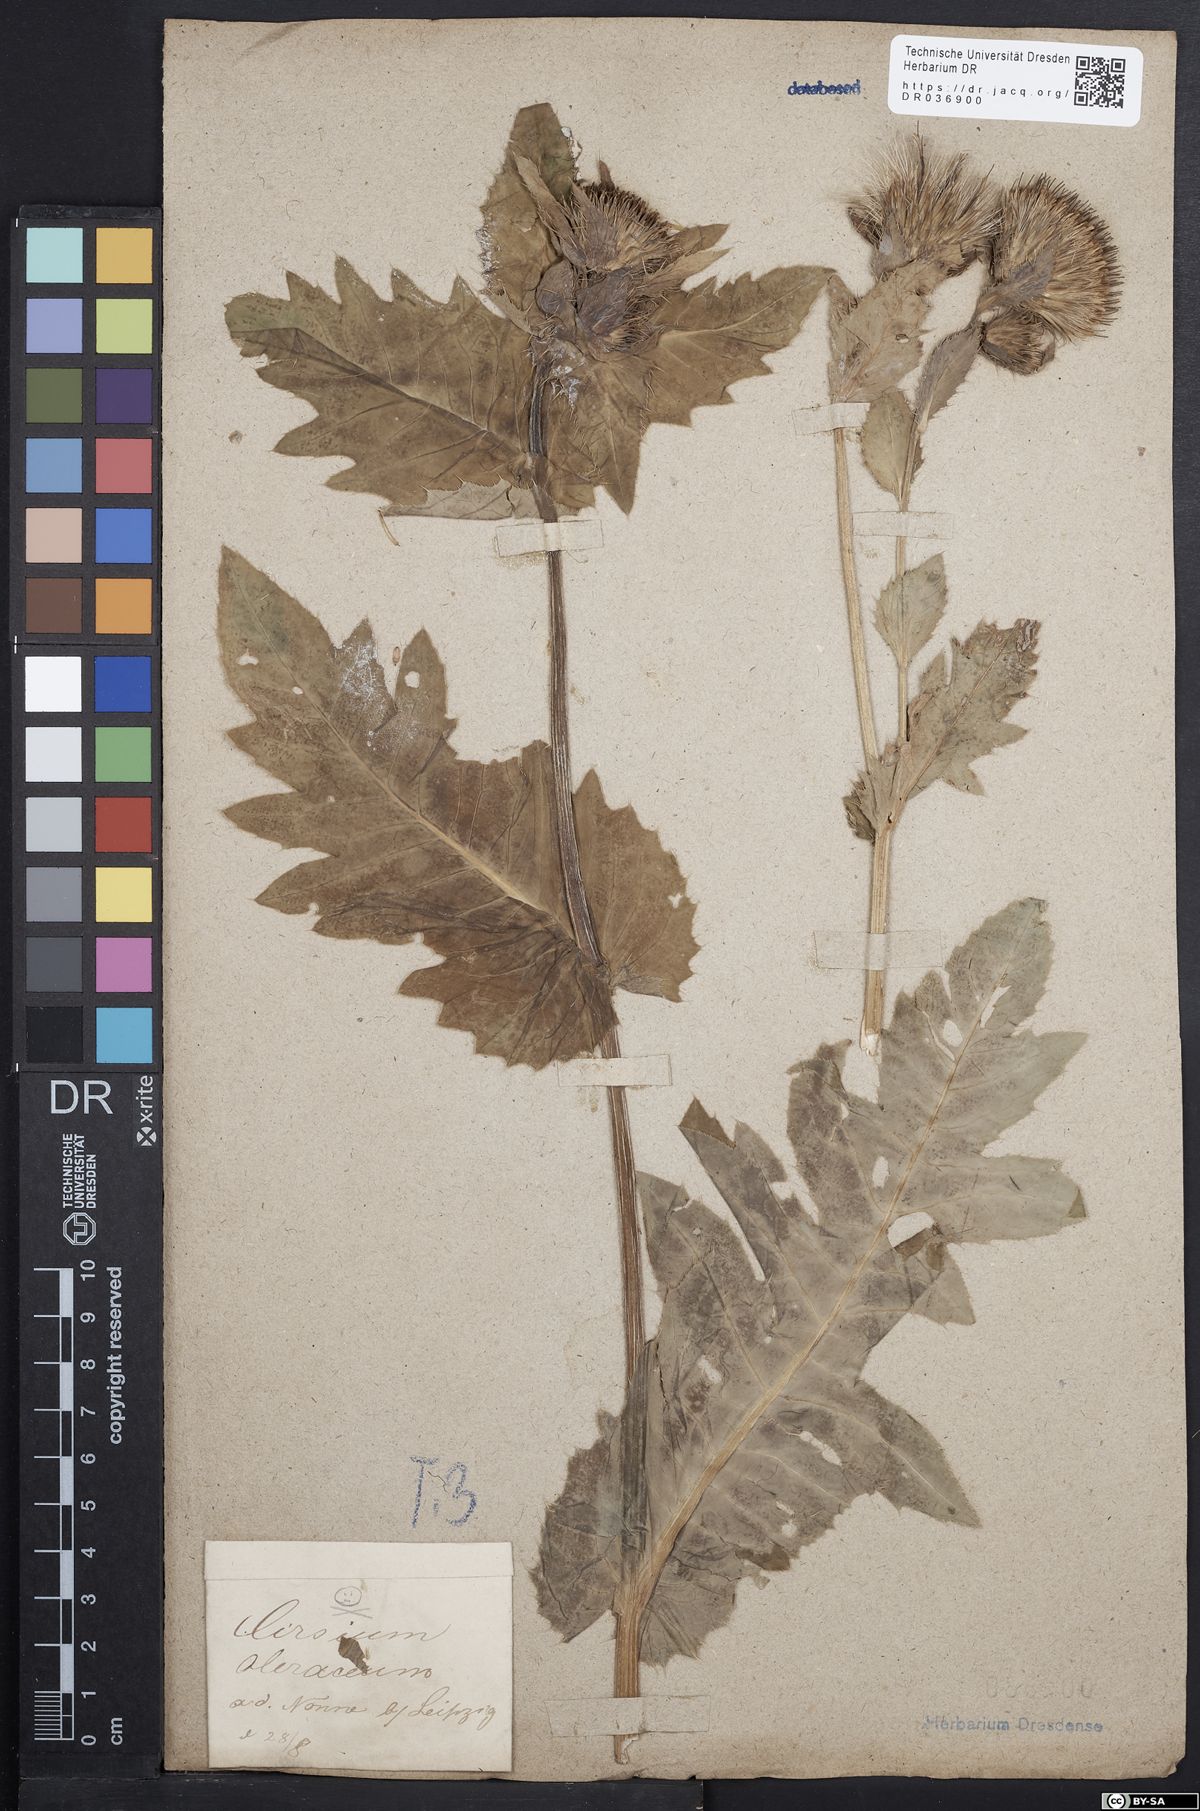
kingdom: Plantae
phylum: Tracheophyta
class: Magnoliopsida
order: Asterales
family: Asteraceae
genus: Cirsium
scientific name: Cirsium oleraceum
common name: Cabbage thistle
